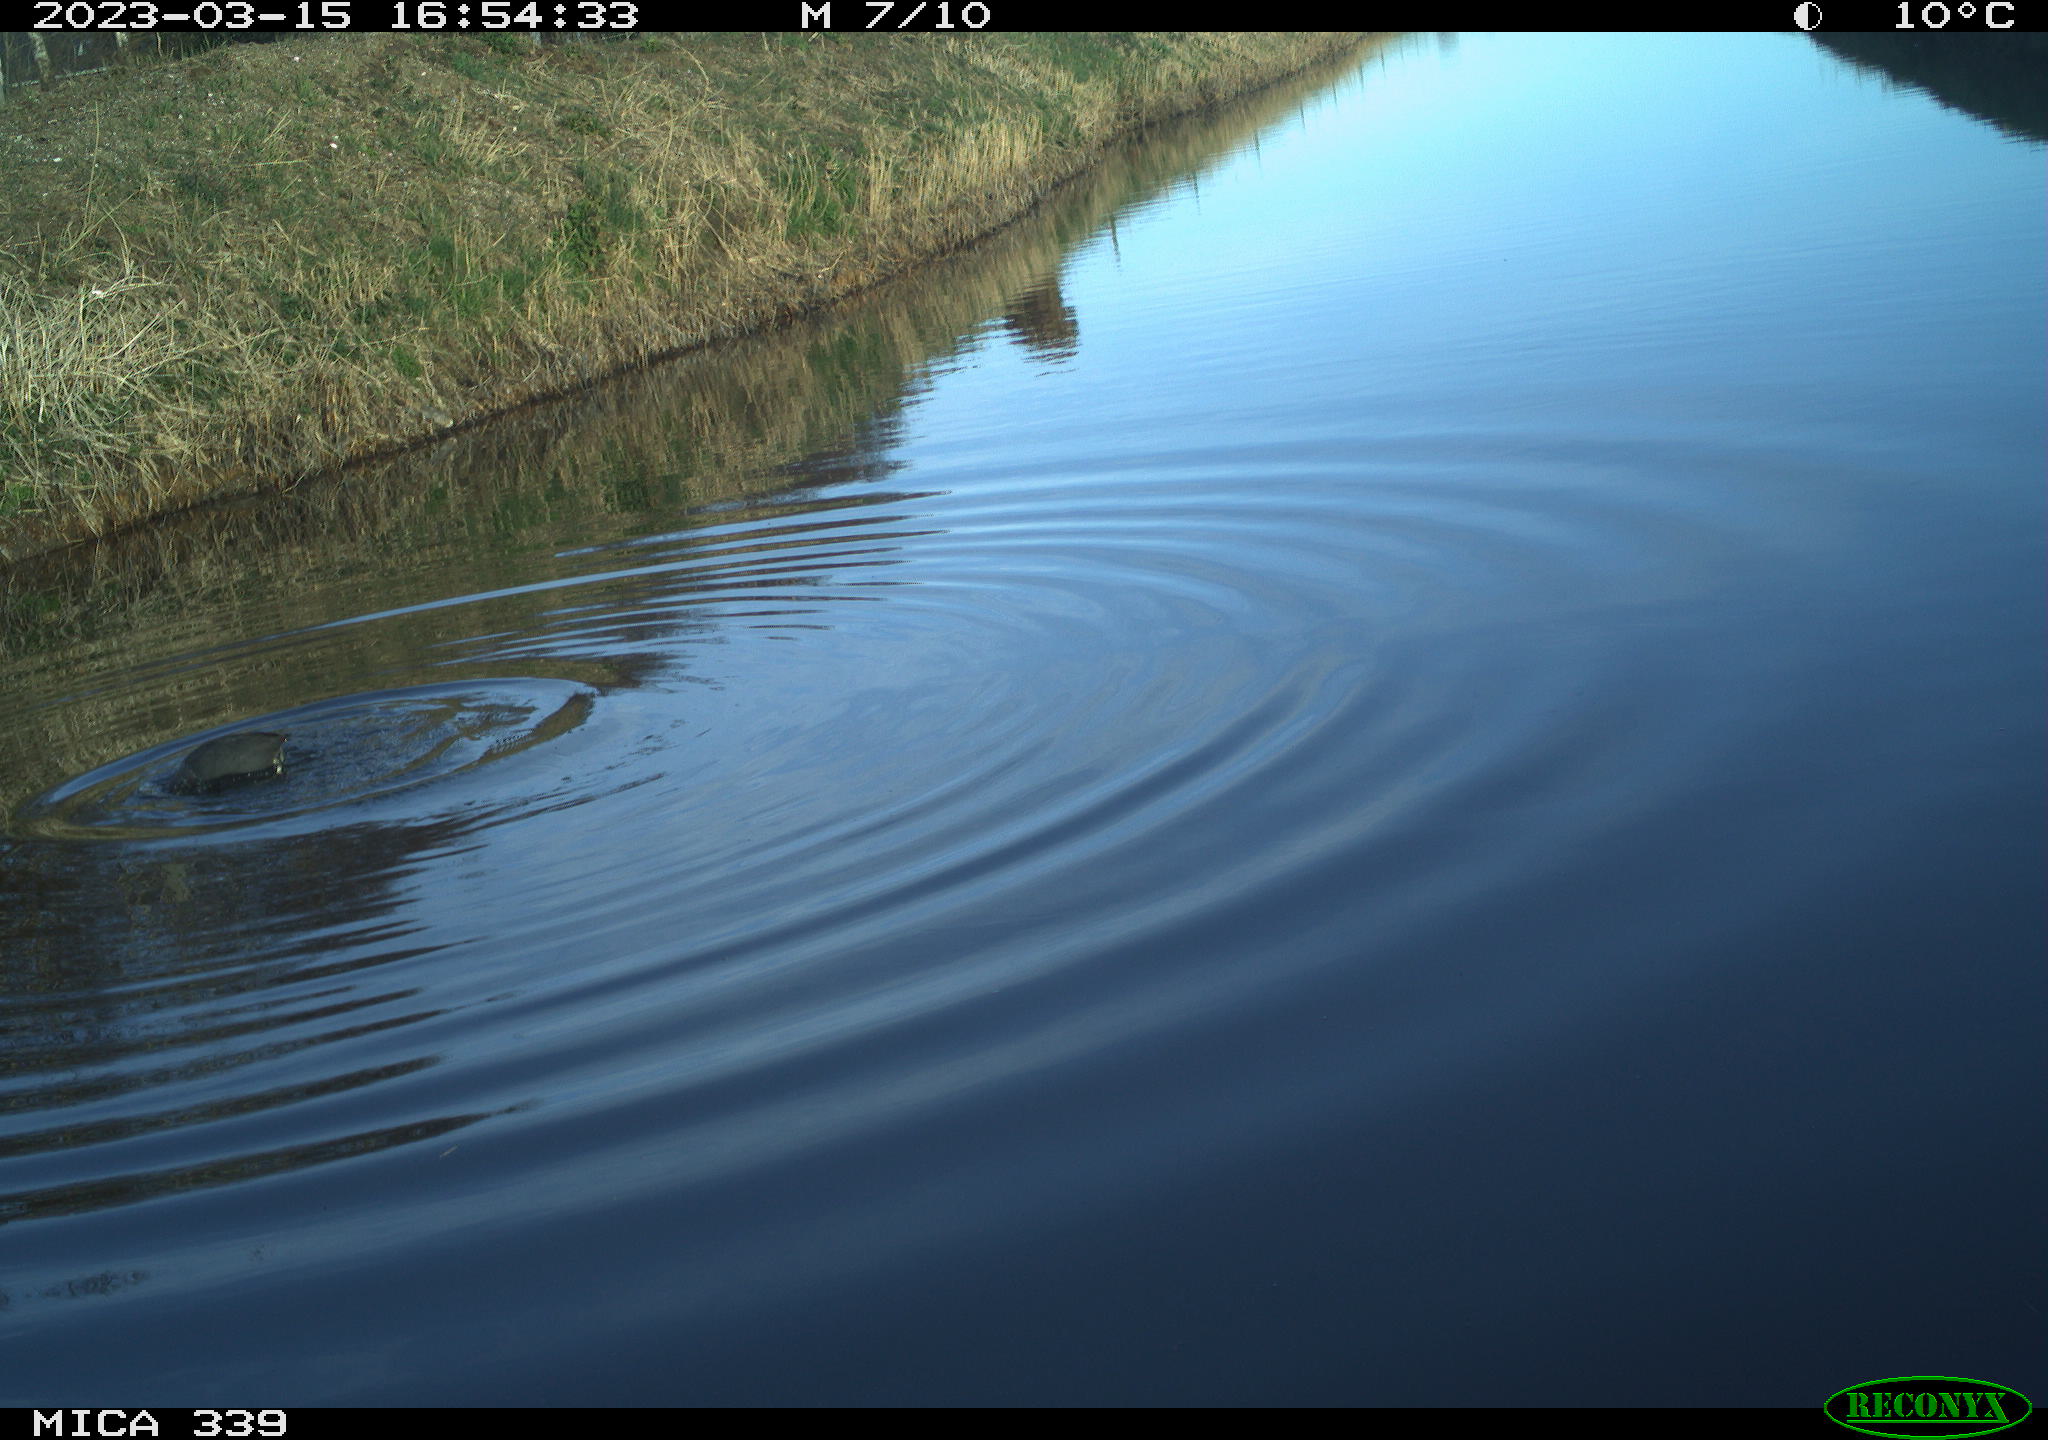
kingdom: Animalia
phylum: Chordata
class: Aves
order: Gruiformes
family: Rallidae
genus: Fulica
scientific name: Fulica atra
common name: Eurasian coot
